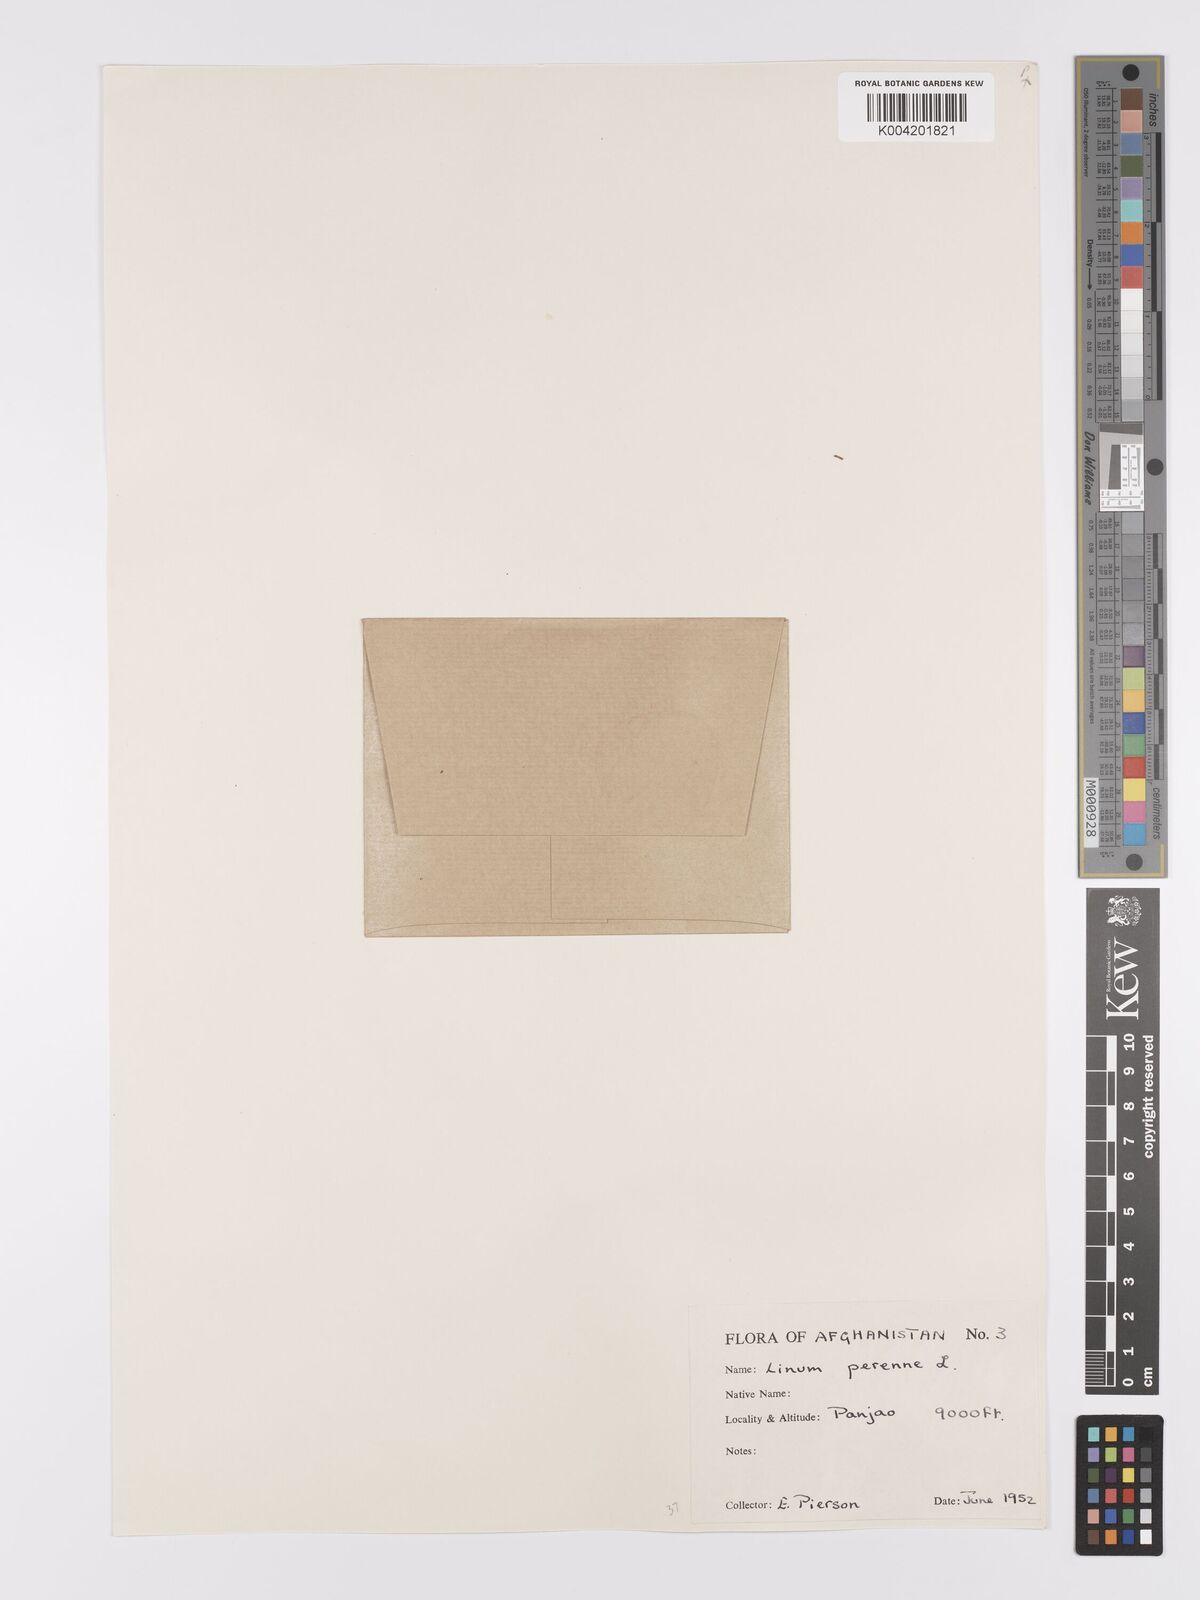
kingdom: Plantae
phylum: Tracheophyta
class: Magnoliopsida
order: Malpighiales
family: Linaceae
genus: Linum
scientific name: Linum
